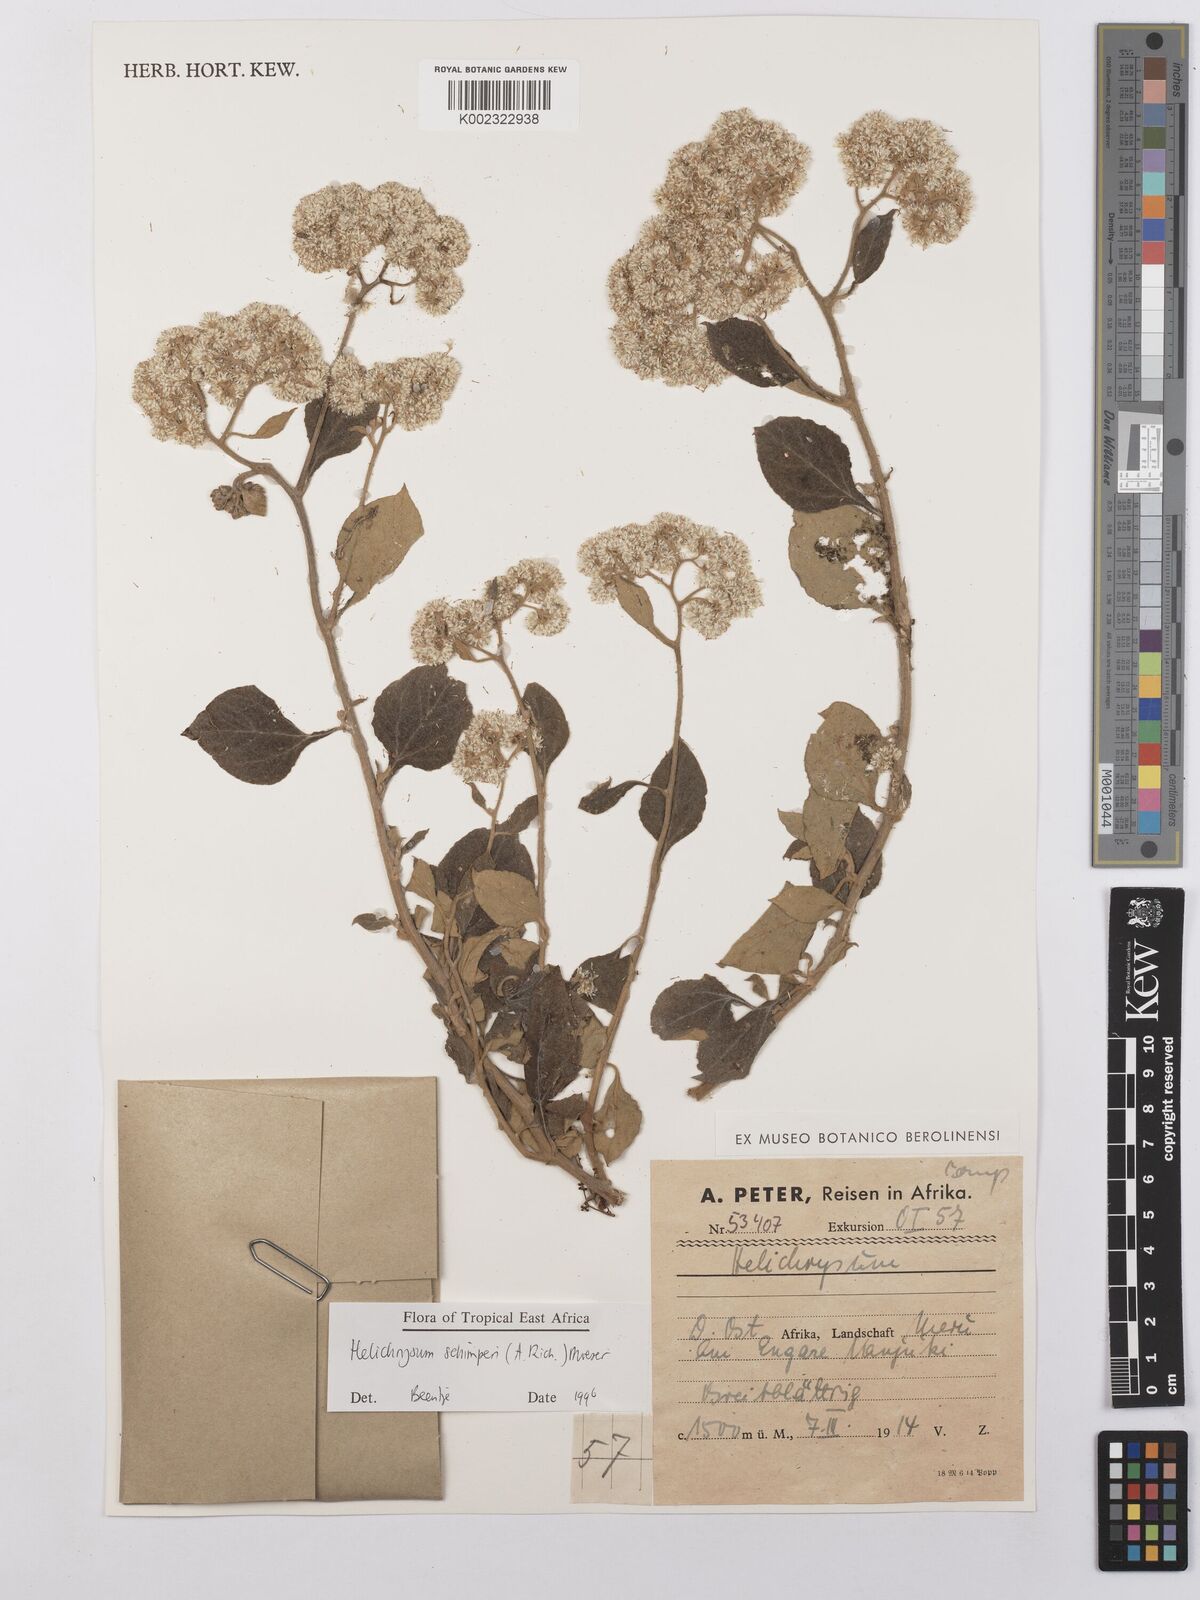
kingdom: Plantae
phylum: Tracheophyta
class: Magnoliopsida
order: Asterales
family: Asteraceae
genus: Helichrysum
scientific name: Helichrysum schimperi
